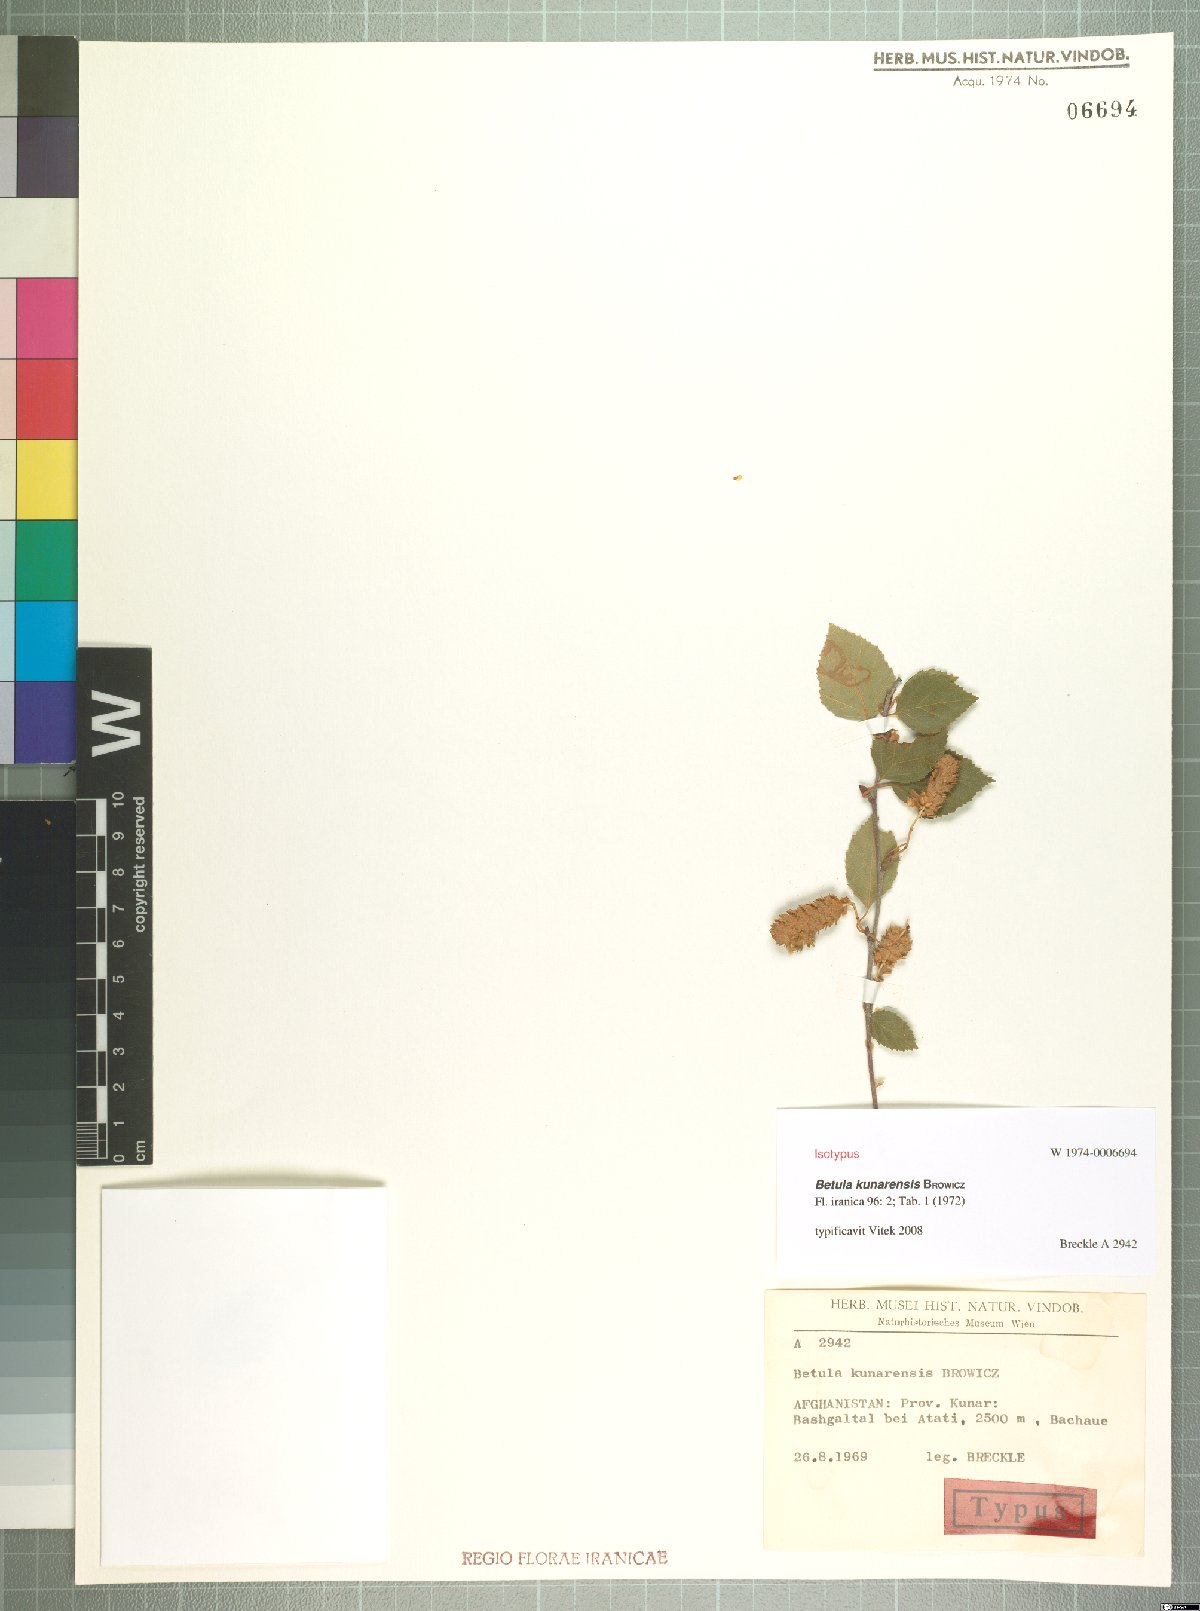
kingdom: Plantae
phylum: Tracheophyta
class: Magnoliopsida
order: Fagales
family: Betulaceae
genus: Betula
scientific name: Betula utilis
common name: Himalayan birch
